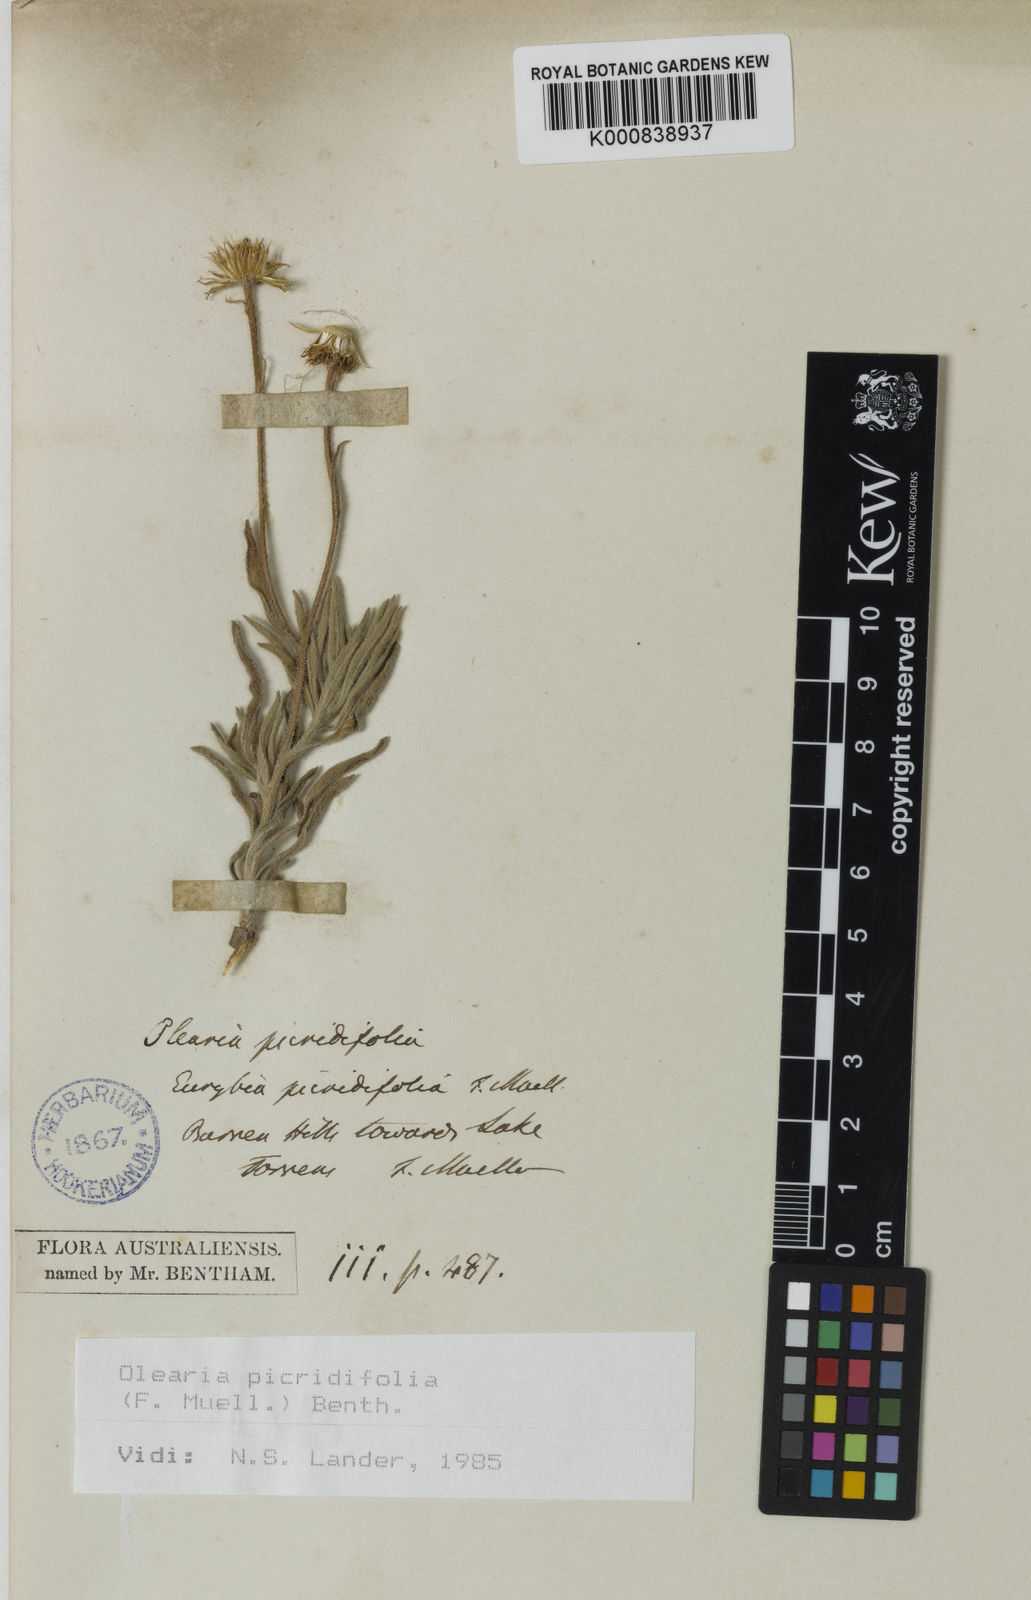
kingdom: Plantae
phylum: Tracheophyta
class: Magnoliopsida
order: Asterales
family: Asteraceae
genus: Muellerolaria
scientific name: Muellerolaria picridifolia
